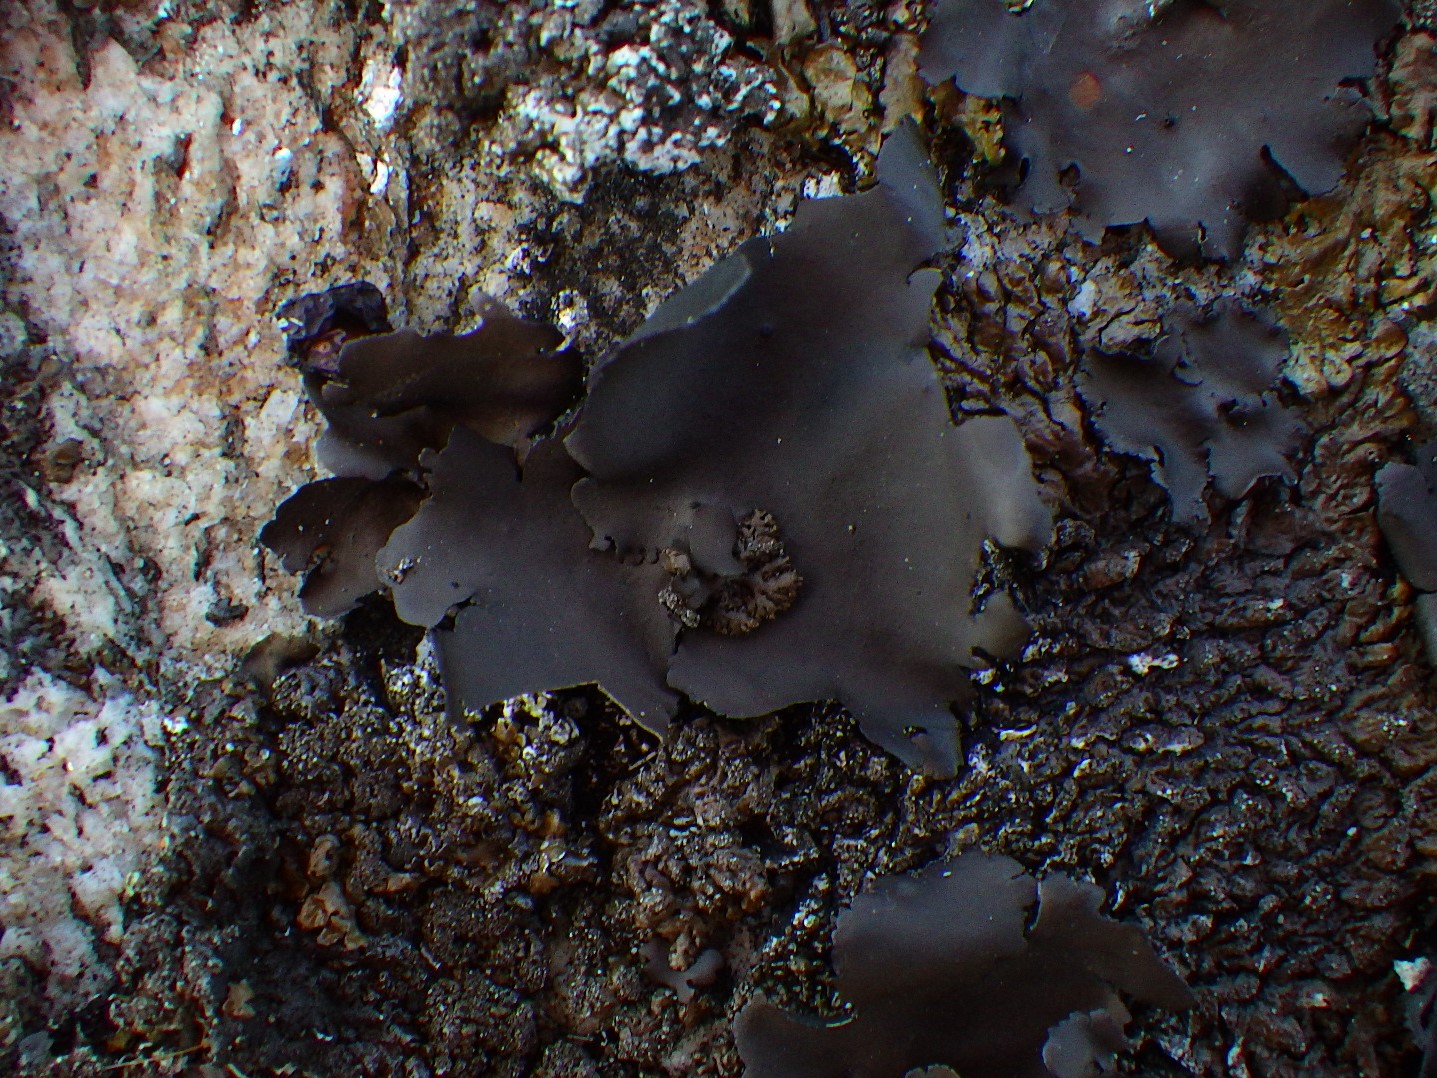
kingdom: Fungi
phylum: Ascomycota
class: Lecanoromycetes
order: Umbilicariales
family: Umbilicariaceae
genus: Umbilicaria
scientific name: Umbilicaria polyphylla
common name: glat navlelav
